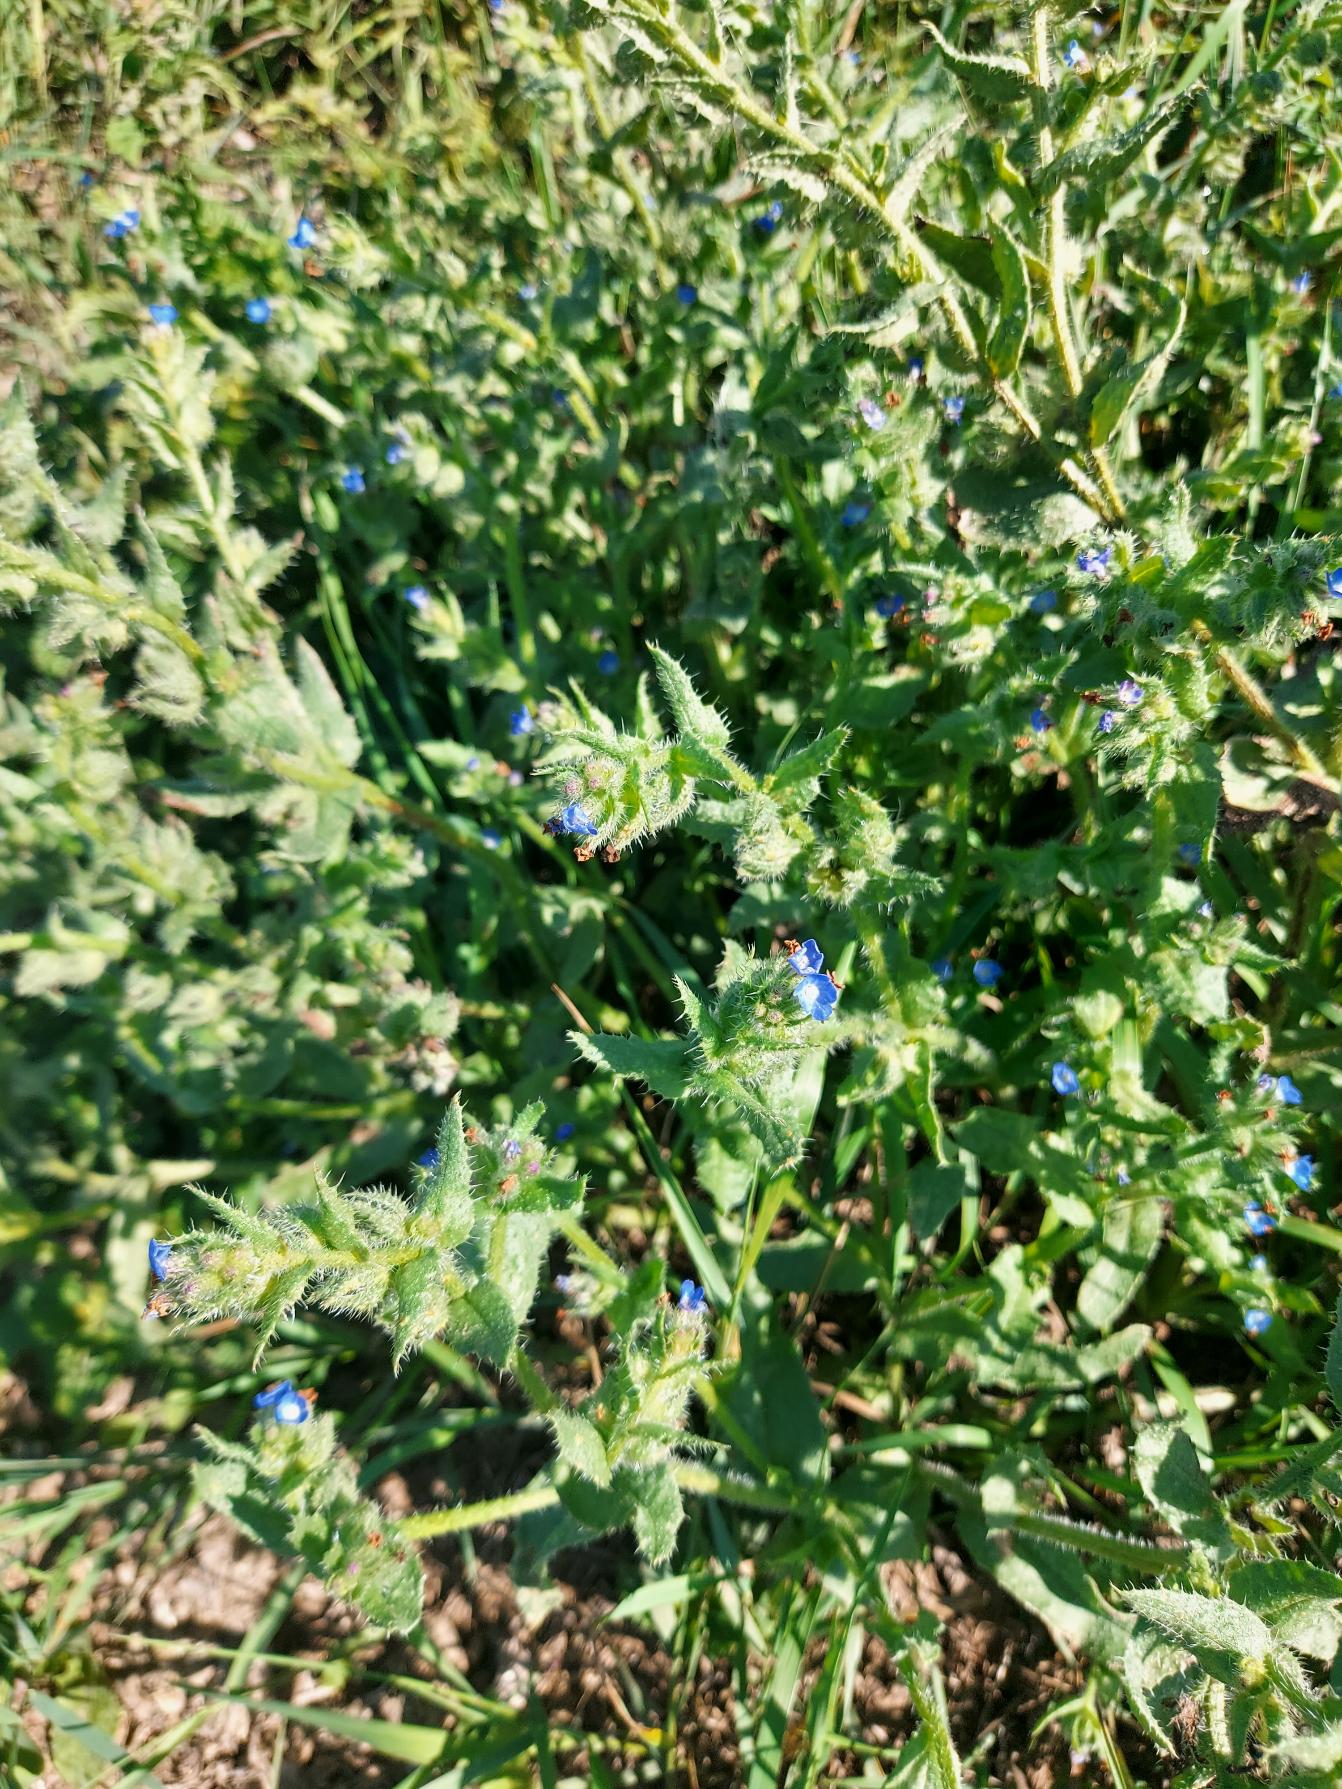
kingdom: Plantae
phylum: Tracheophyta
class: Magnoliopsida
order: Boraginales
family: Boraginaceae
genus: Lycopsis
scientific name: Lycopsis arvensis
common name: Krumhals
